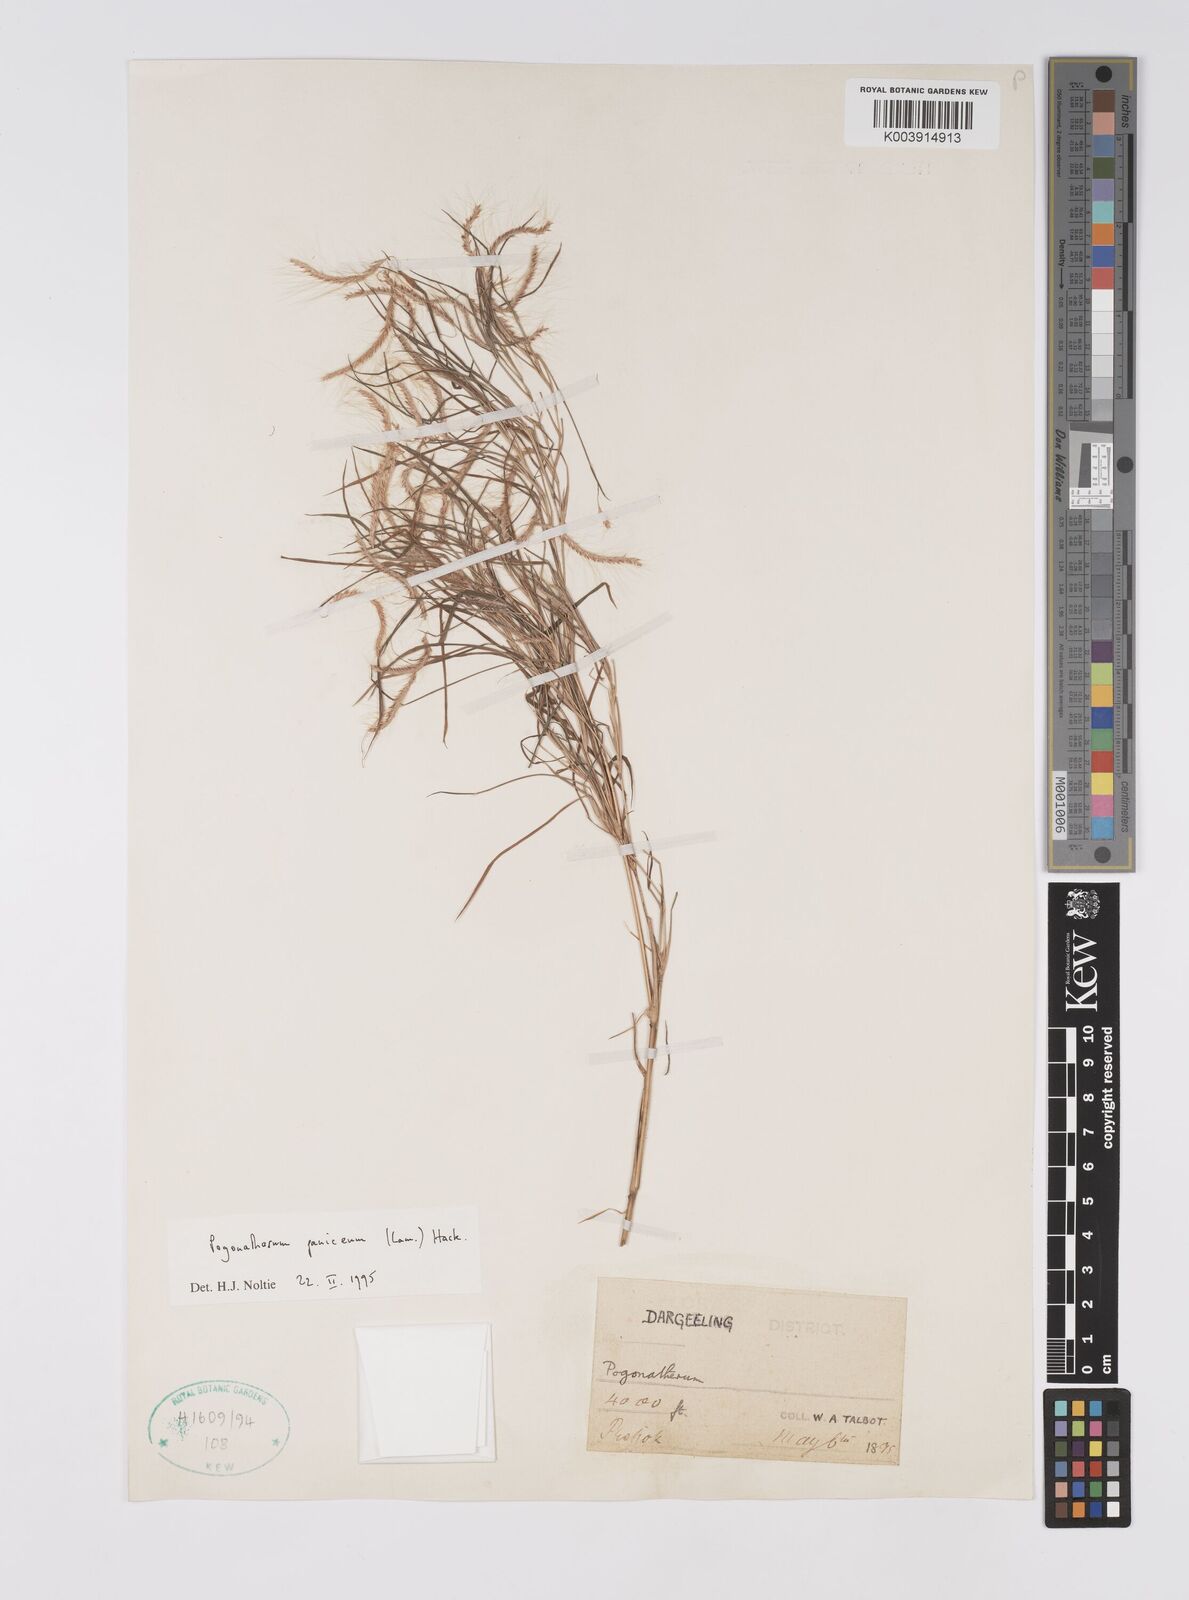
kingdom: Plantae
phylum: Tracheophyta
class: Liliopsida
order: Poales
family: Poaceae
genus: Pogonatherum
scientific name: Pogonatherum paniceum
